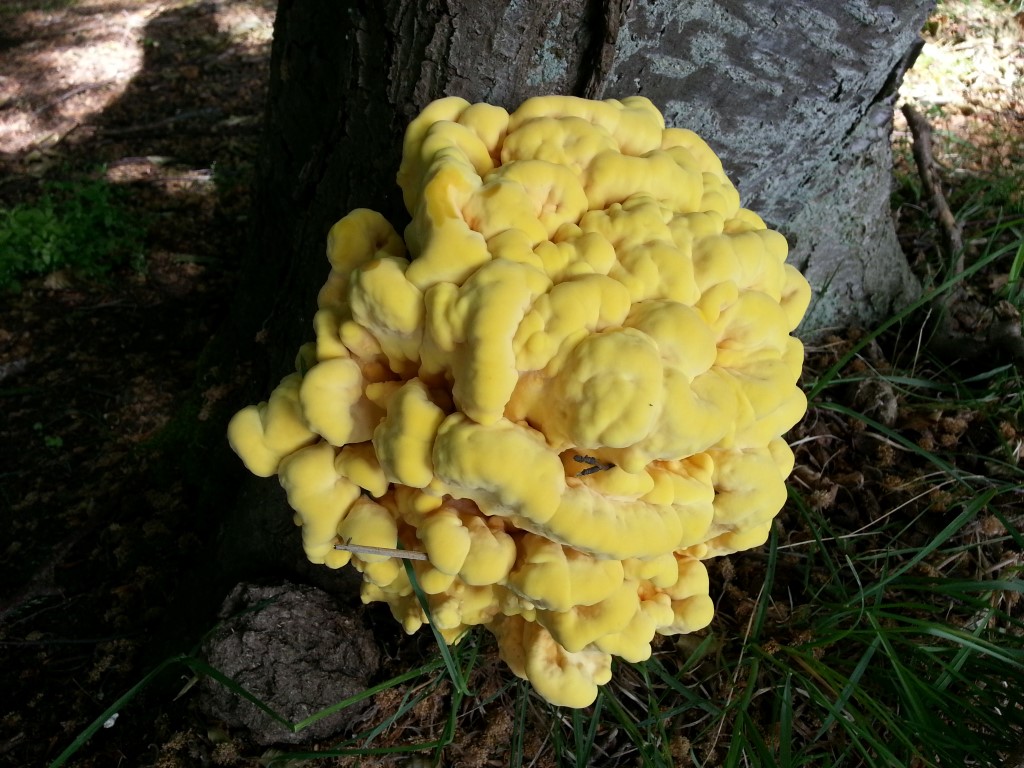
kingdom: Fungi
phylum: Basidiomycota
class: Agaricomycetes
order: Polyporales
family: Laetiporaceae
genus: Laetiporus
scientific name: Laetiporus sulphureus
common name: svovlporesvamp
